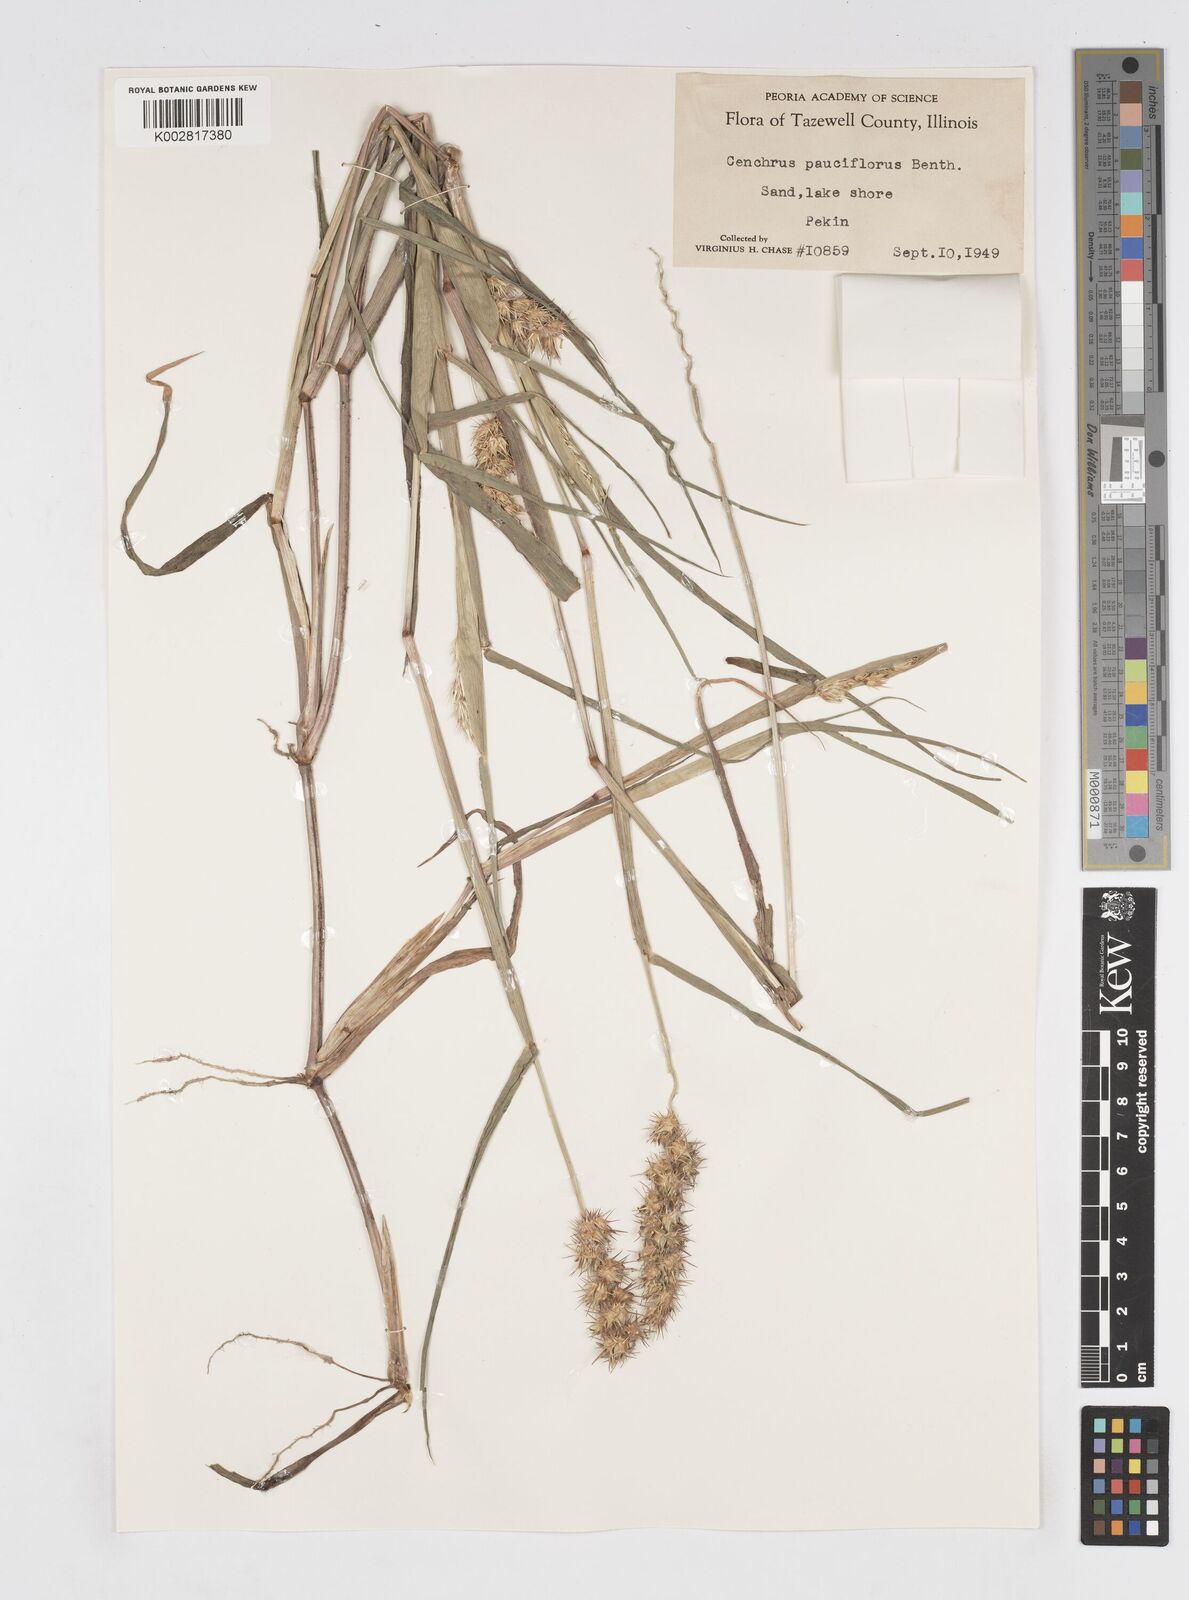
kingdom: Plantae
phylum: Tracheophyta
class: Liliopsida
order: Poales
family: Poaceae
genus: Cenchrus
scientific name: Cenchrus longispinus
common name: Mat sandbur
